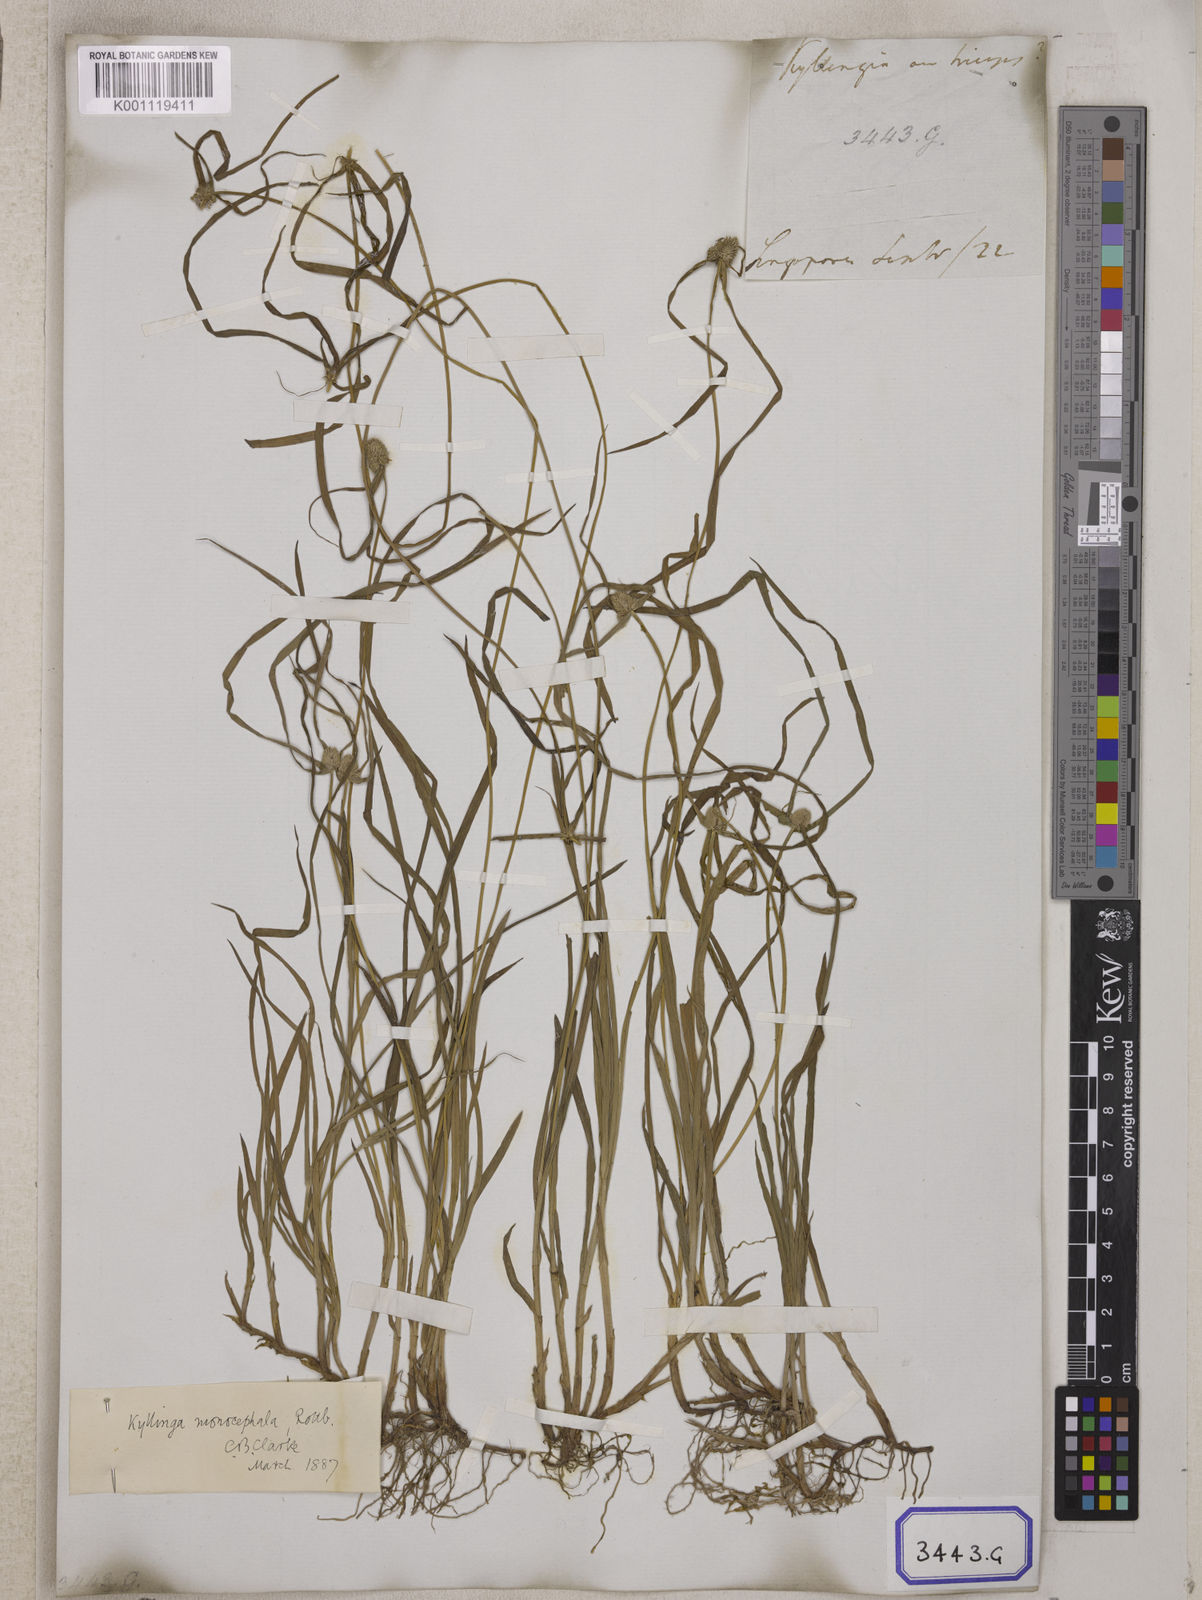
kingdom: Plantae
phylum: Tracheophyta
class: Liliopsida
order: Poales
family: Cyperaceae
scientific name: Cyperaceae
